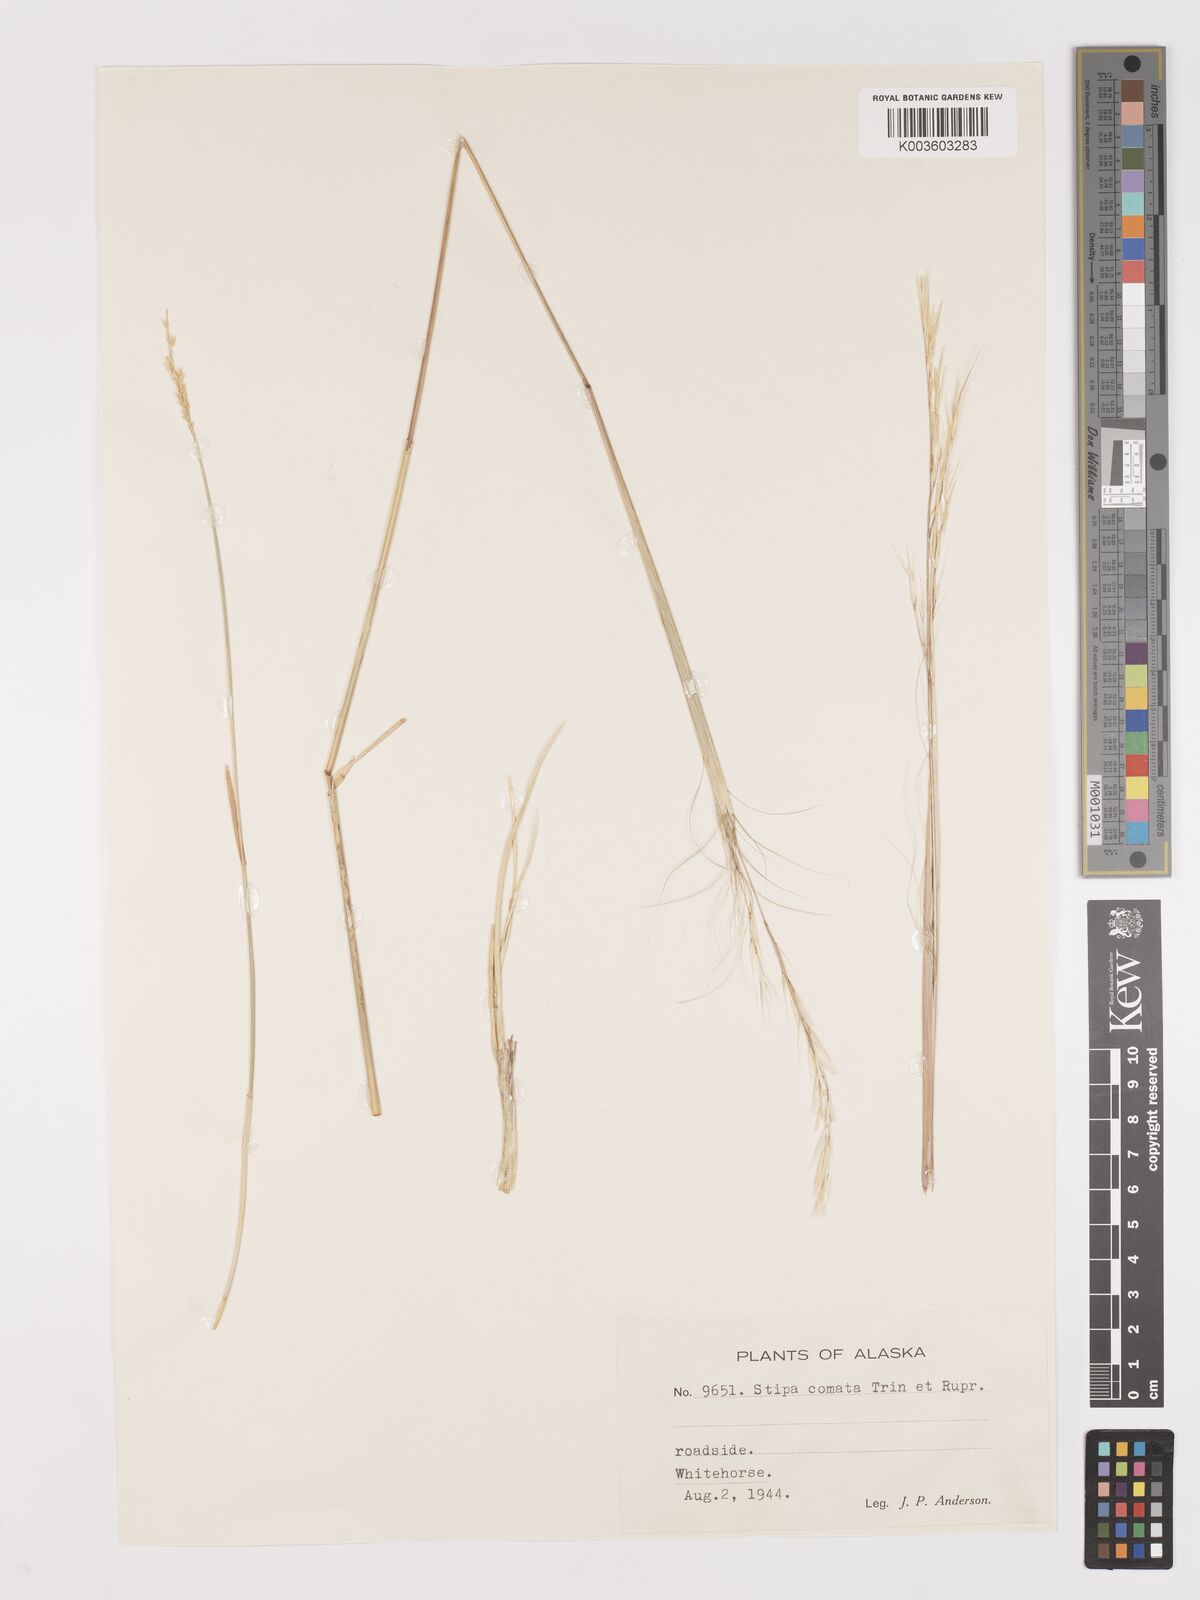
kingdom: Plantae
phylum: Tracheophyta
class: Liliopsida
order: Poales
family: Poaceae
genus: Stipa
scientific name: Stipa
